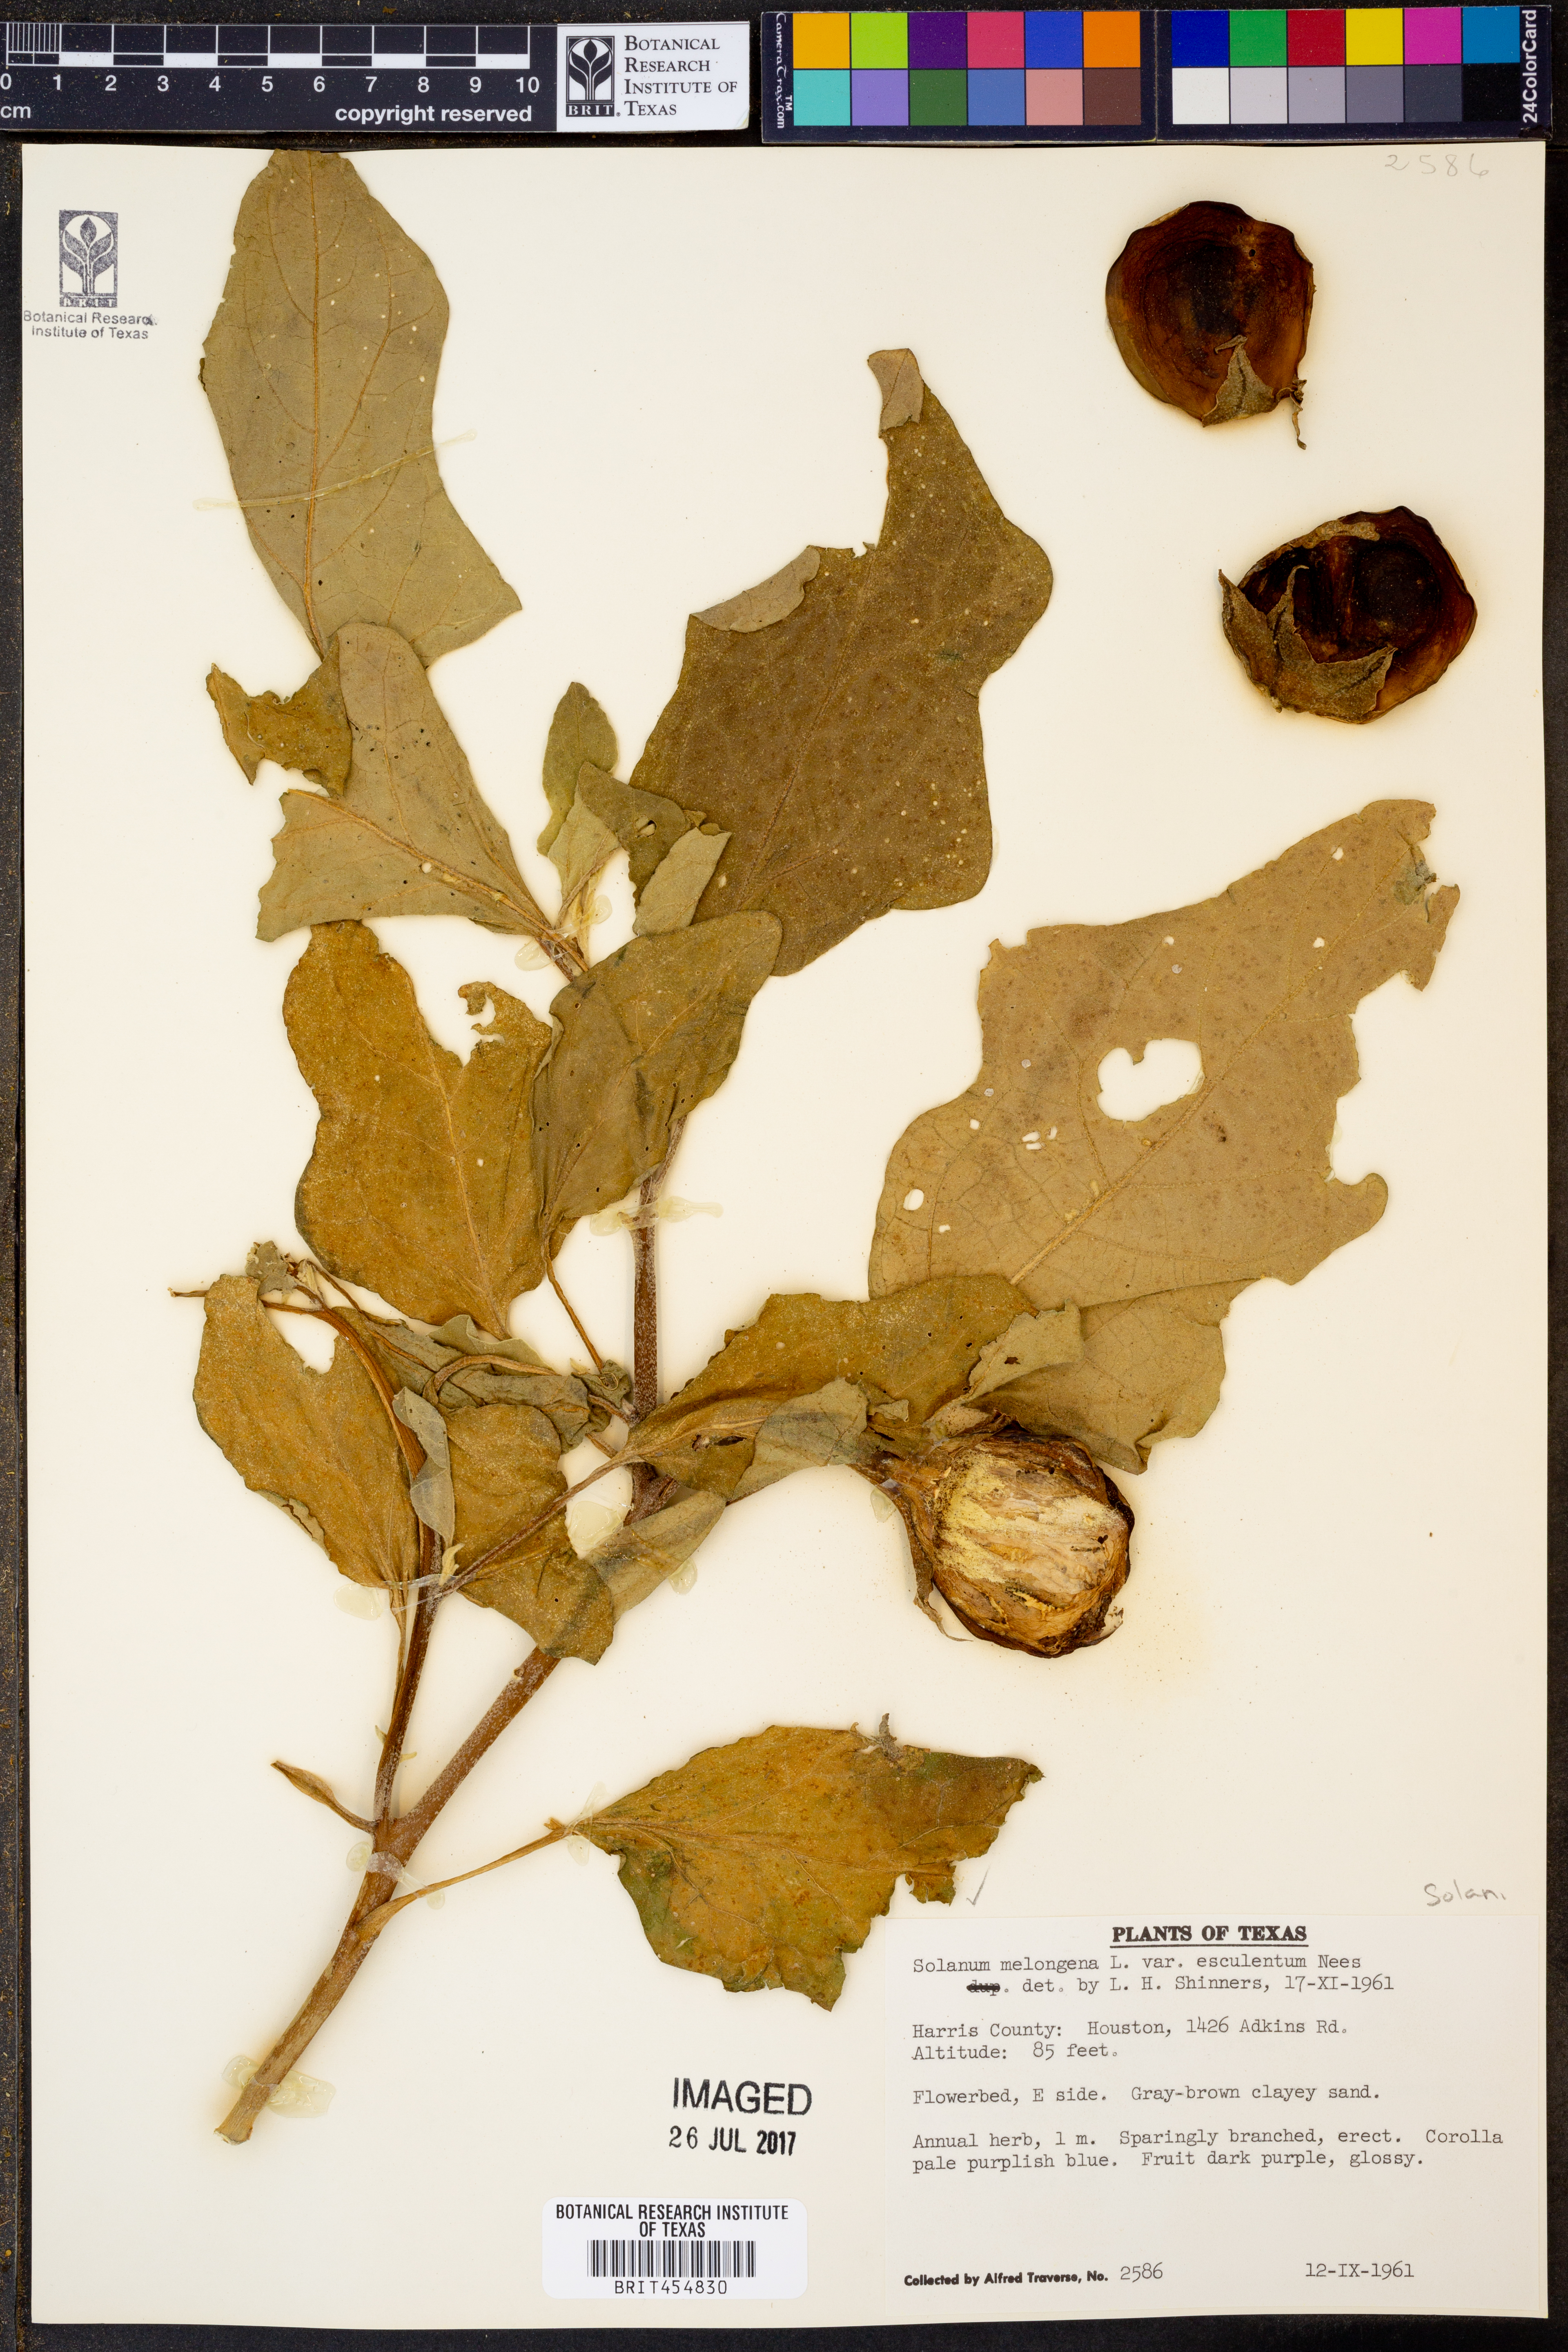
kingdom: Plantae
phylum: Tracheophyta
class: Magnoliopsida
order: Solanales
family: Solanaceae
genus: Solanum
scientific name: Solanum melongena
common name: Eggplant
